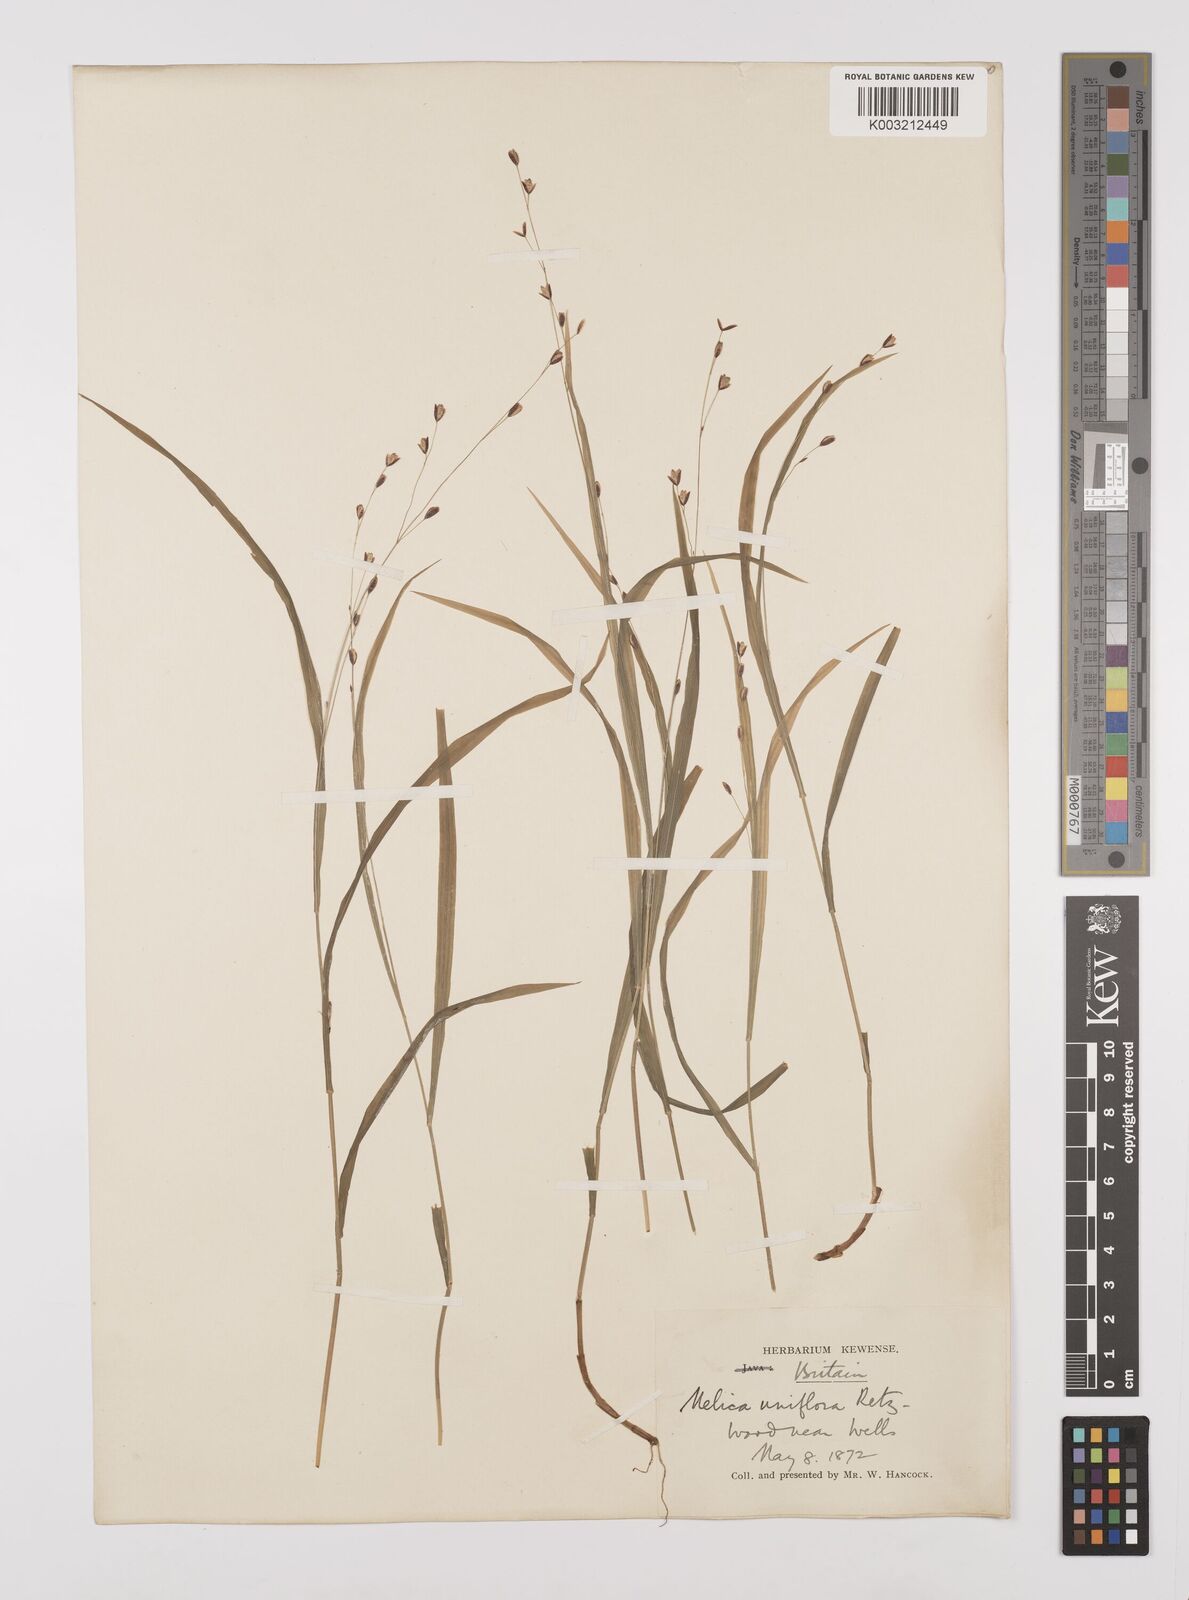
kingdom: Plantae
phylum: Tracheophyta
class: Liliopsida
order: Poales
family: Poaceae
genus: Melica
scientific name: Melica uniflora
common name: Wood melick
